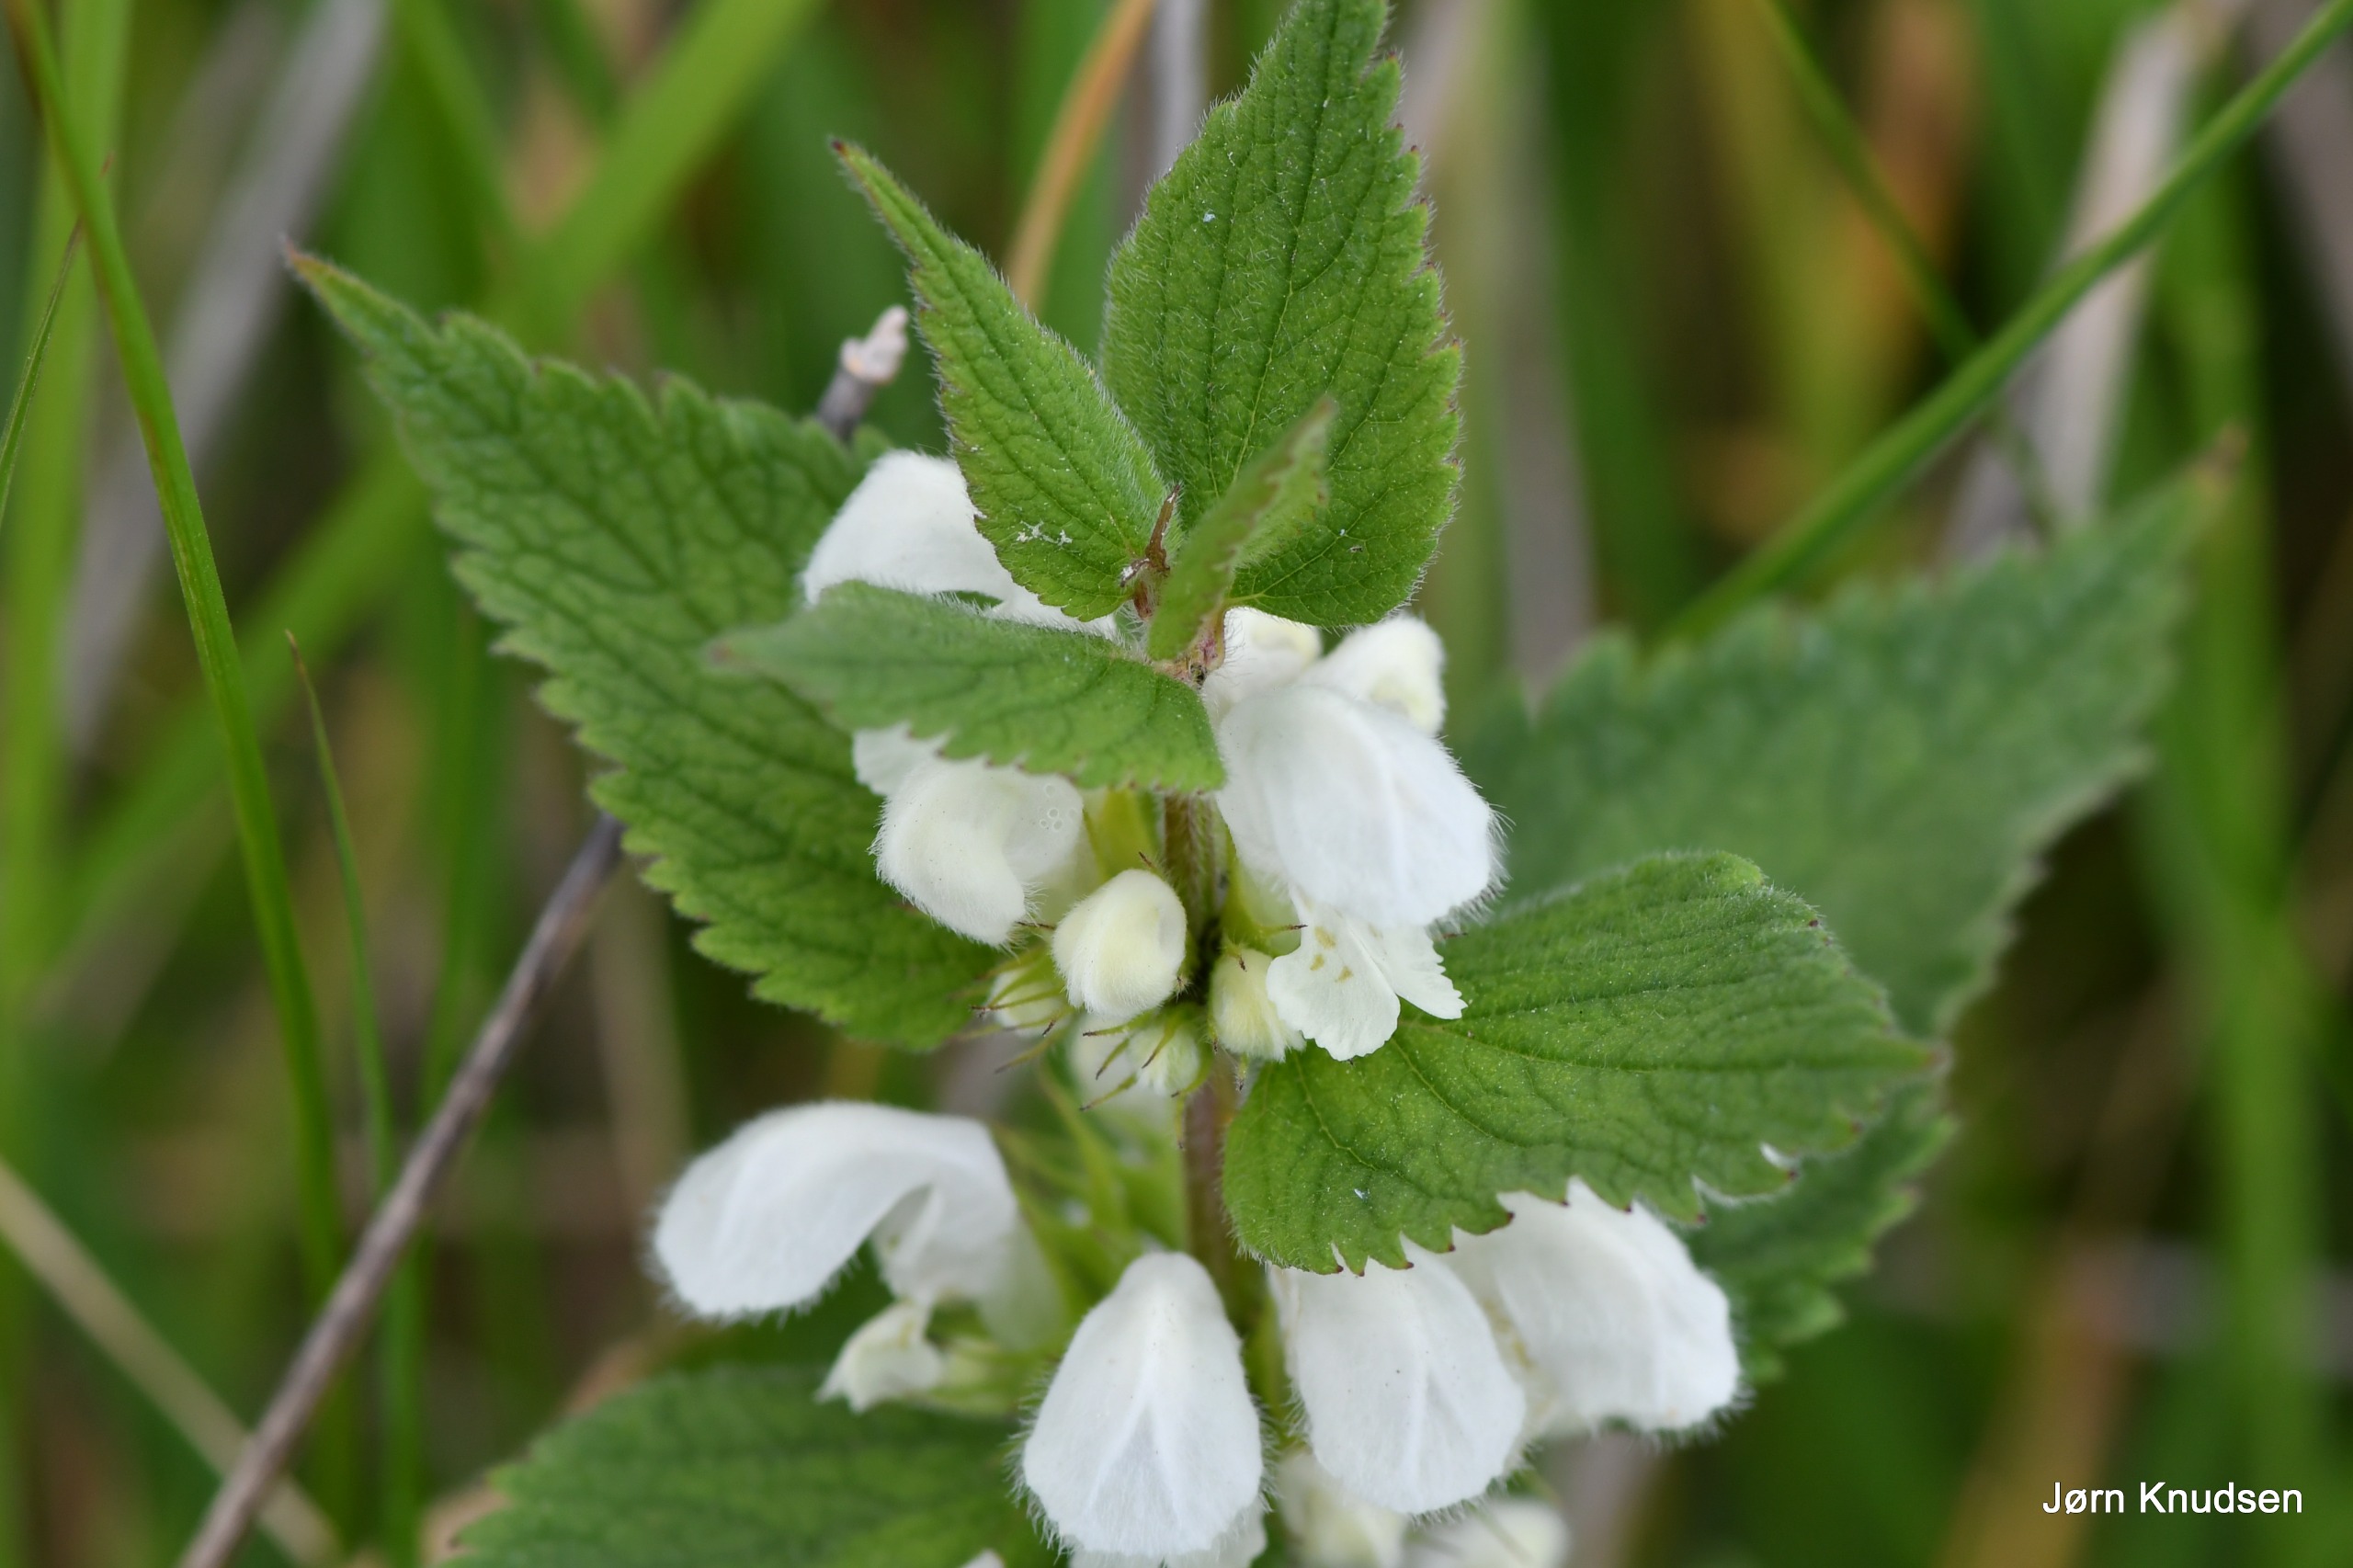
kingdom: Plantae
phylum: Tracheophyta
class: Magnoliopsida
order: Lamiales
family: Lamiaceae
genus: Lamium
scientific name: Lamium album
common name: Døvnælde
